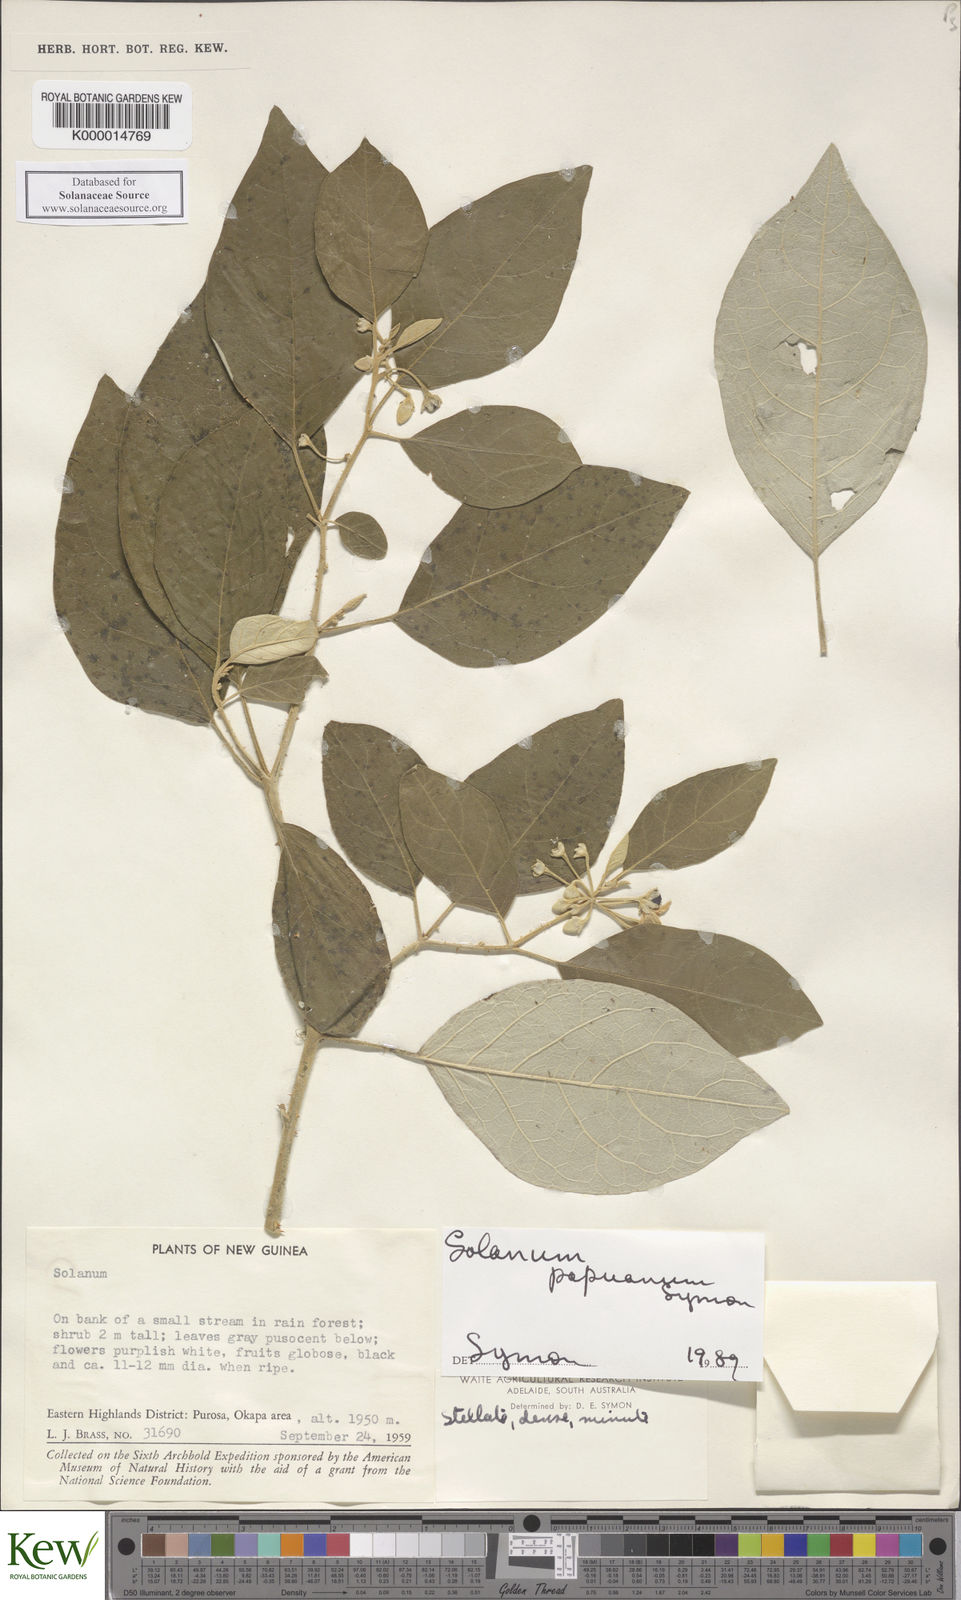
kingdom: Plantae
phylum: Tracheophyta
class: Magnoliopsida
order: Solanales
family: Solanaceae
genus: Solanum
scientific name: Solanum papuanum
